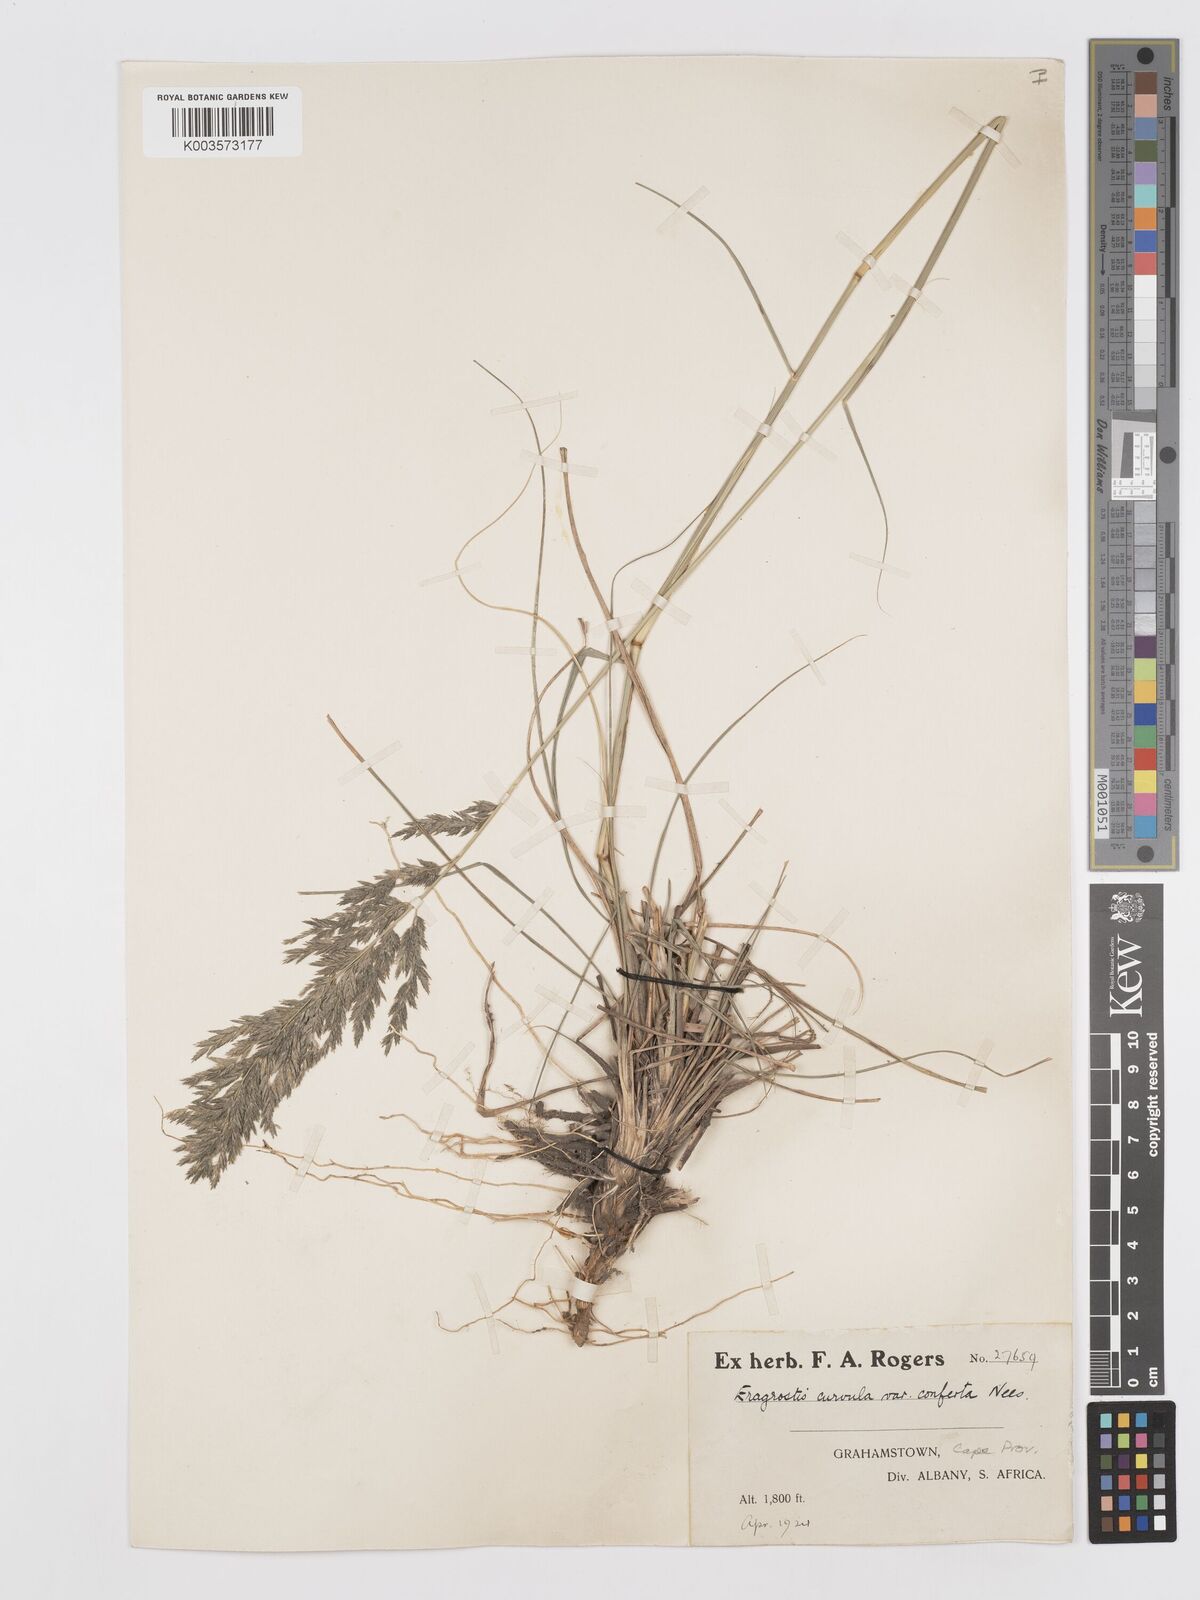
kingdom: Plantae
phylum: Tracheophyta
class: Liliopsida
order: Poales
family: Poaceae
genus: Eragrostis
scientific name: Eragrostis curvula
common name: African love-grass
